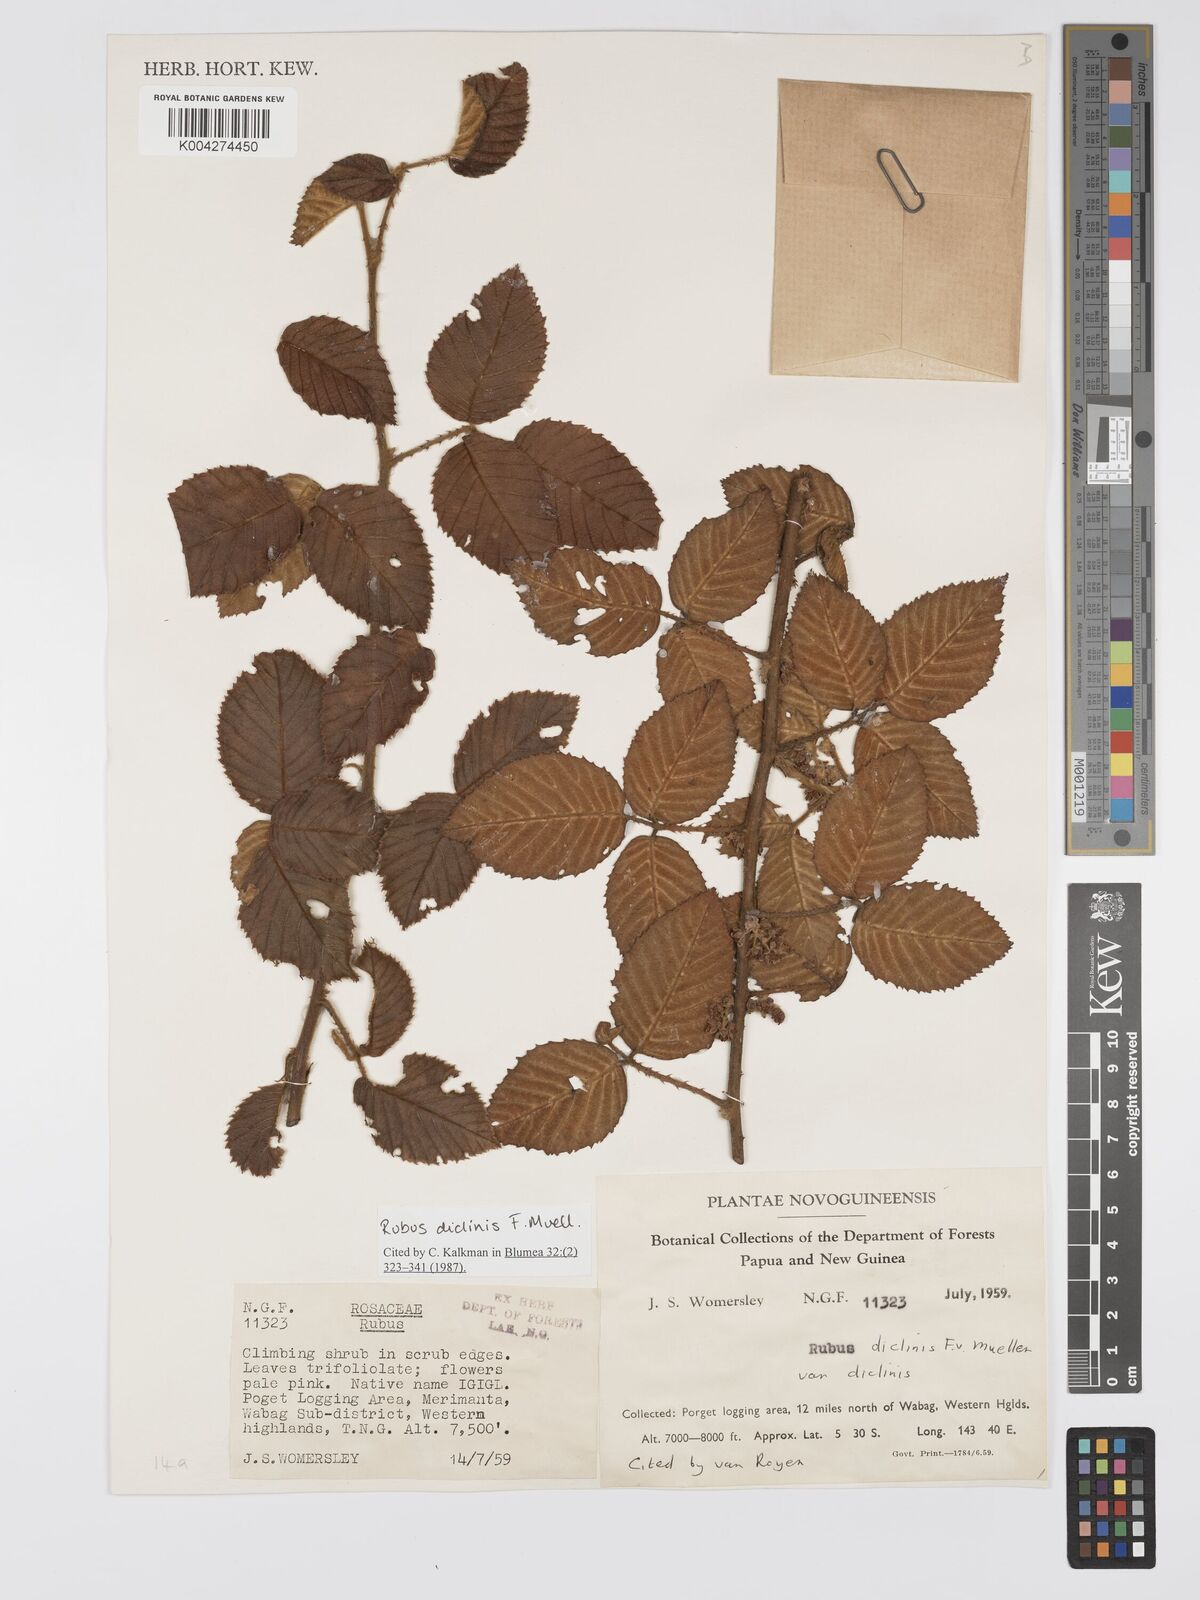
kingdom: Plantae
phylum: Tracheophyta
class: Magnoliopsida
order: Rosales
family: Rosaceae
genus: Rubus
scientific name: Rubus diclinis
